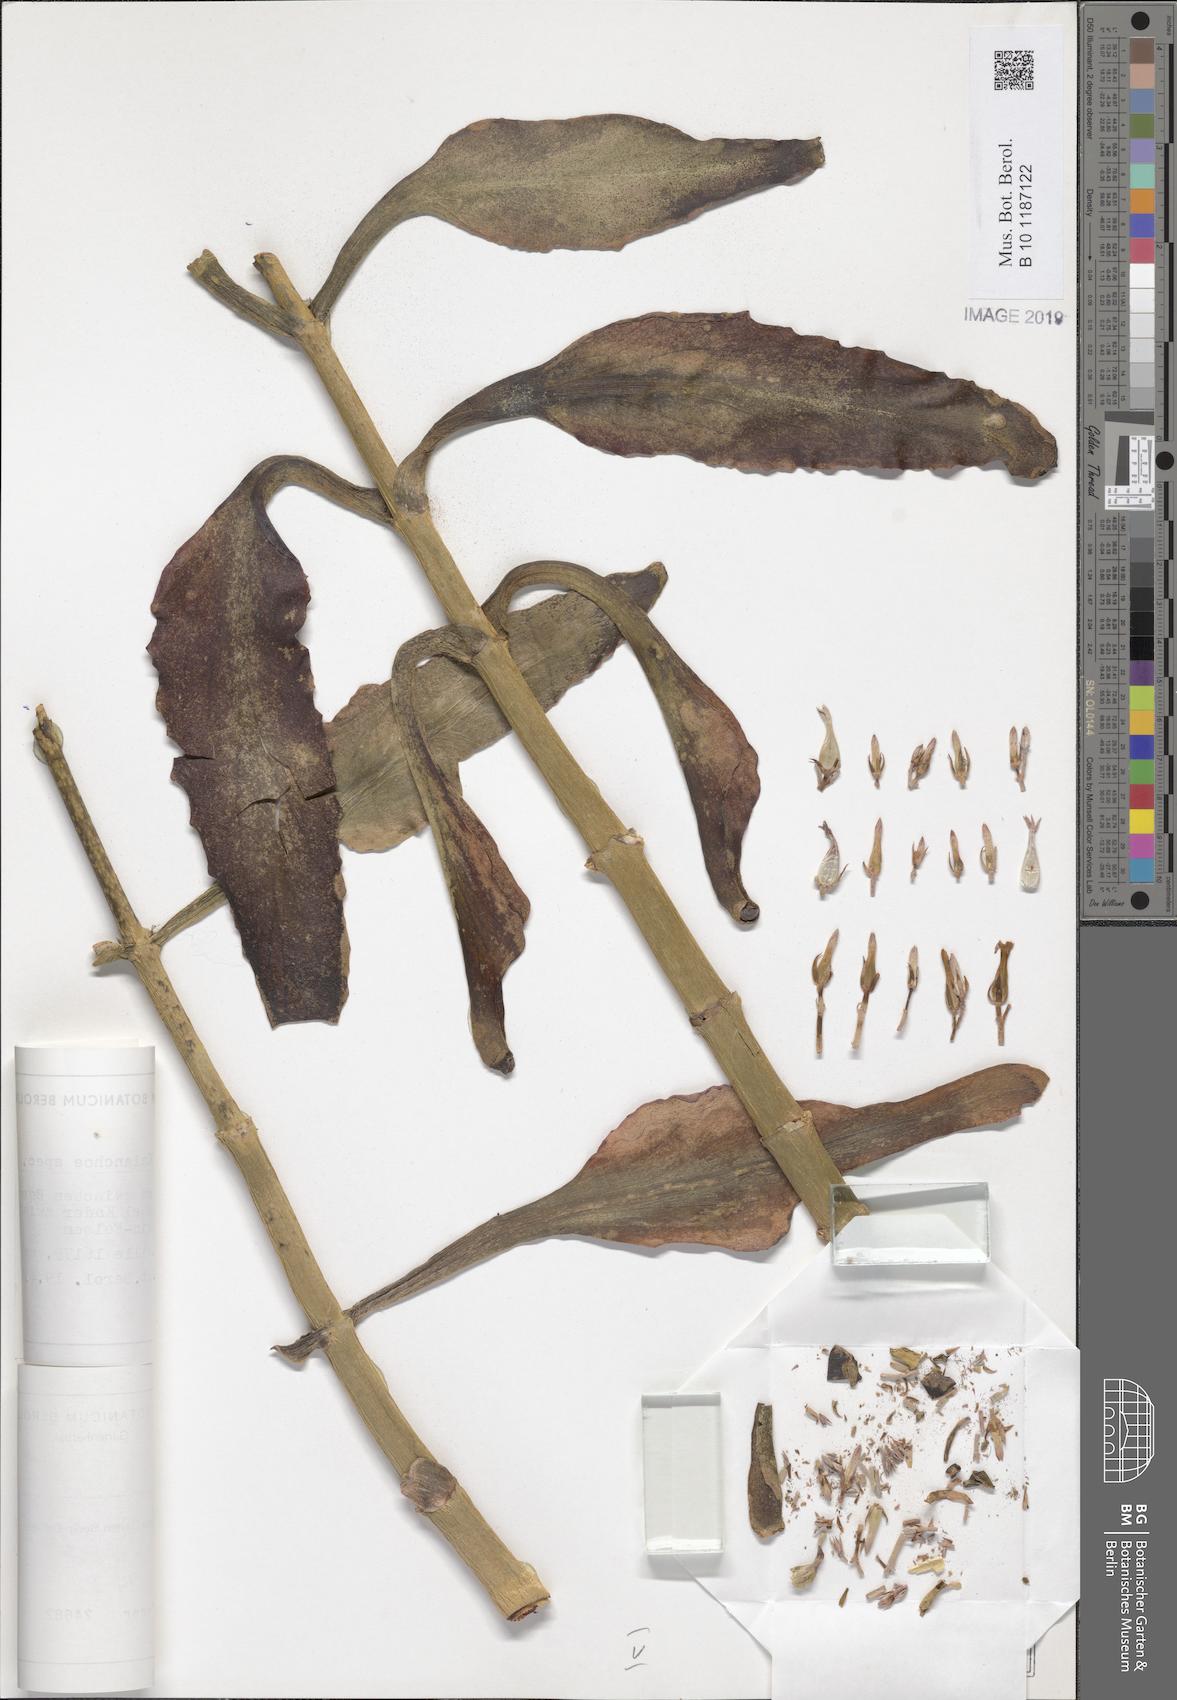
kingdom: Plantae
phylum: Tracheophyta
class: Magnoliopsida
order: Saxifragales
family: Crassulaceae
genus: Kalanchoe
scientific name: Kalanchoe
